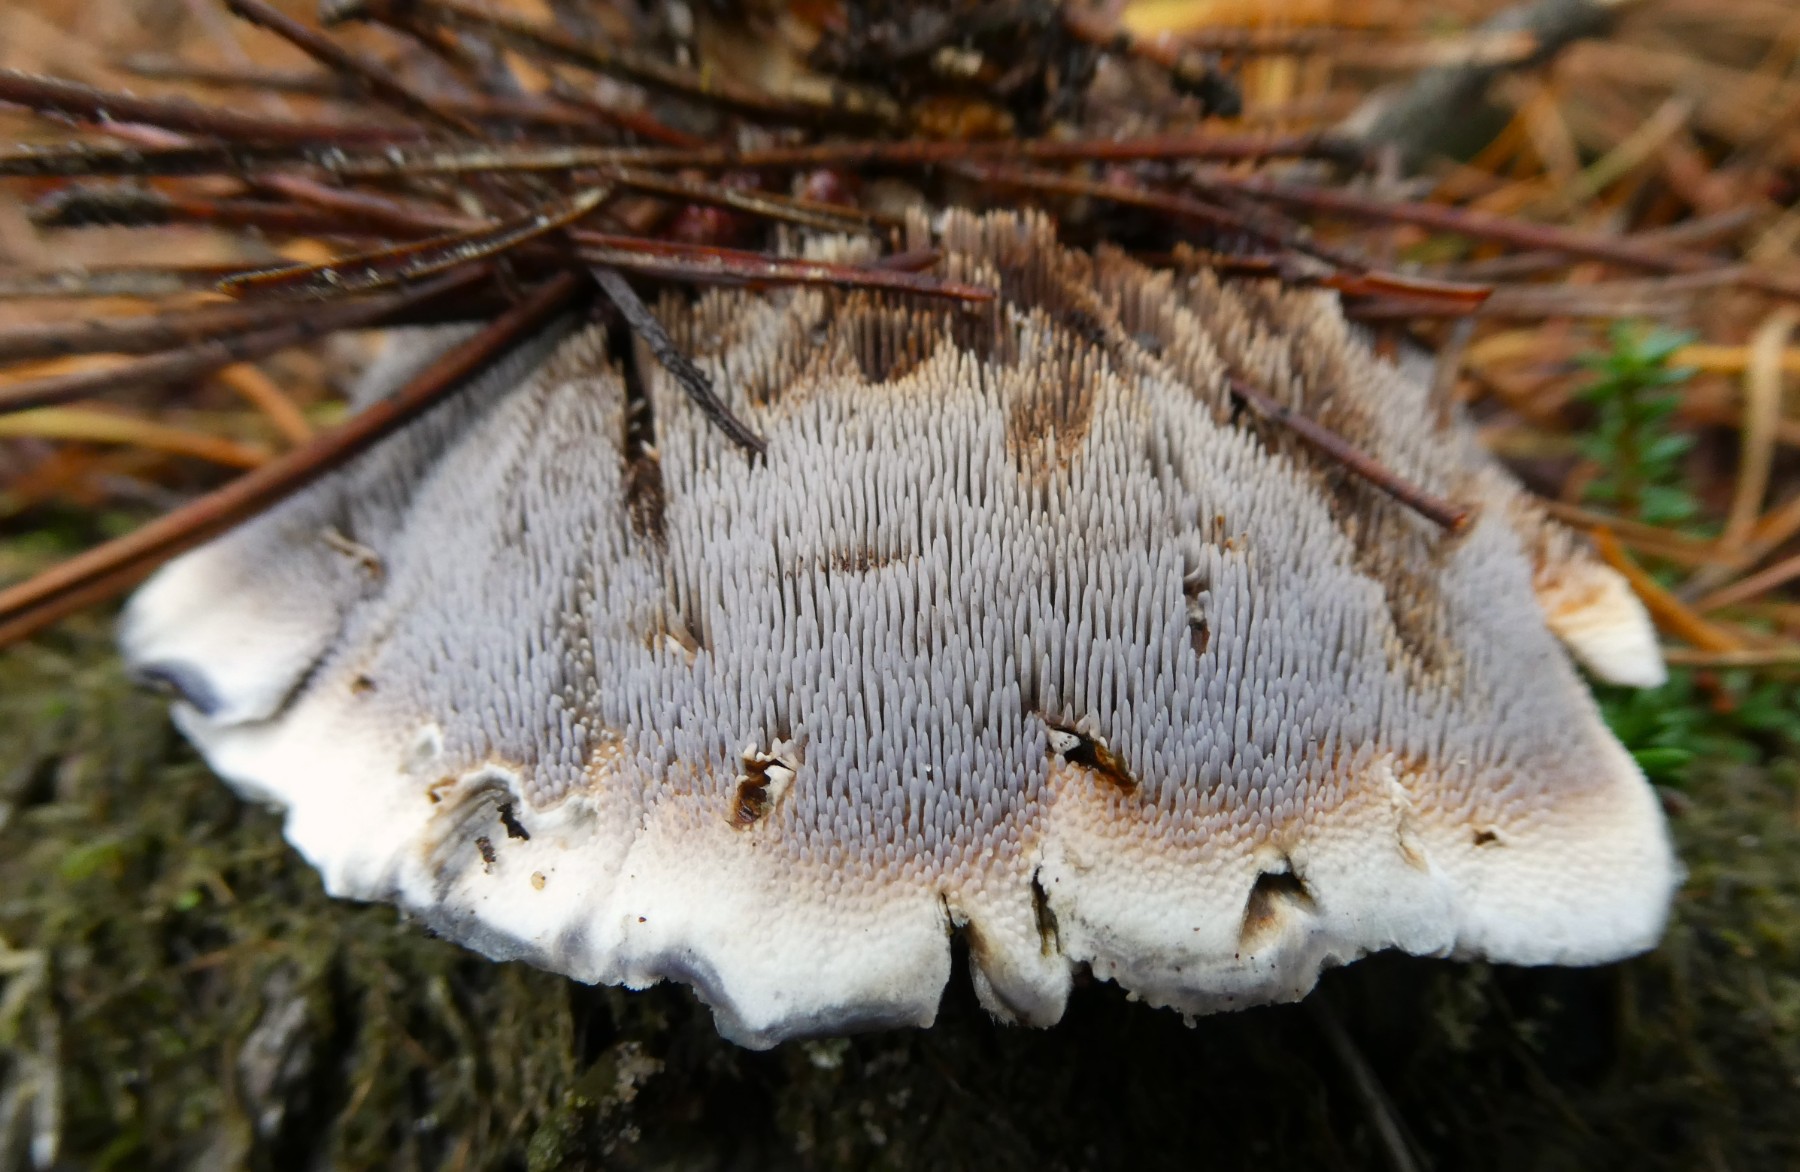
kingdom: Fungi
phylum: Basidiomycota
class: Agaricomycetes
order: Thelephorales
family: Bankeraceae
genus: Hydnellum
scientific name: Hydnellum caeruleum
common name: blålig korkpigsvamp
